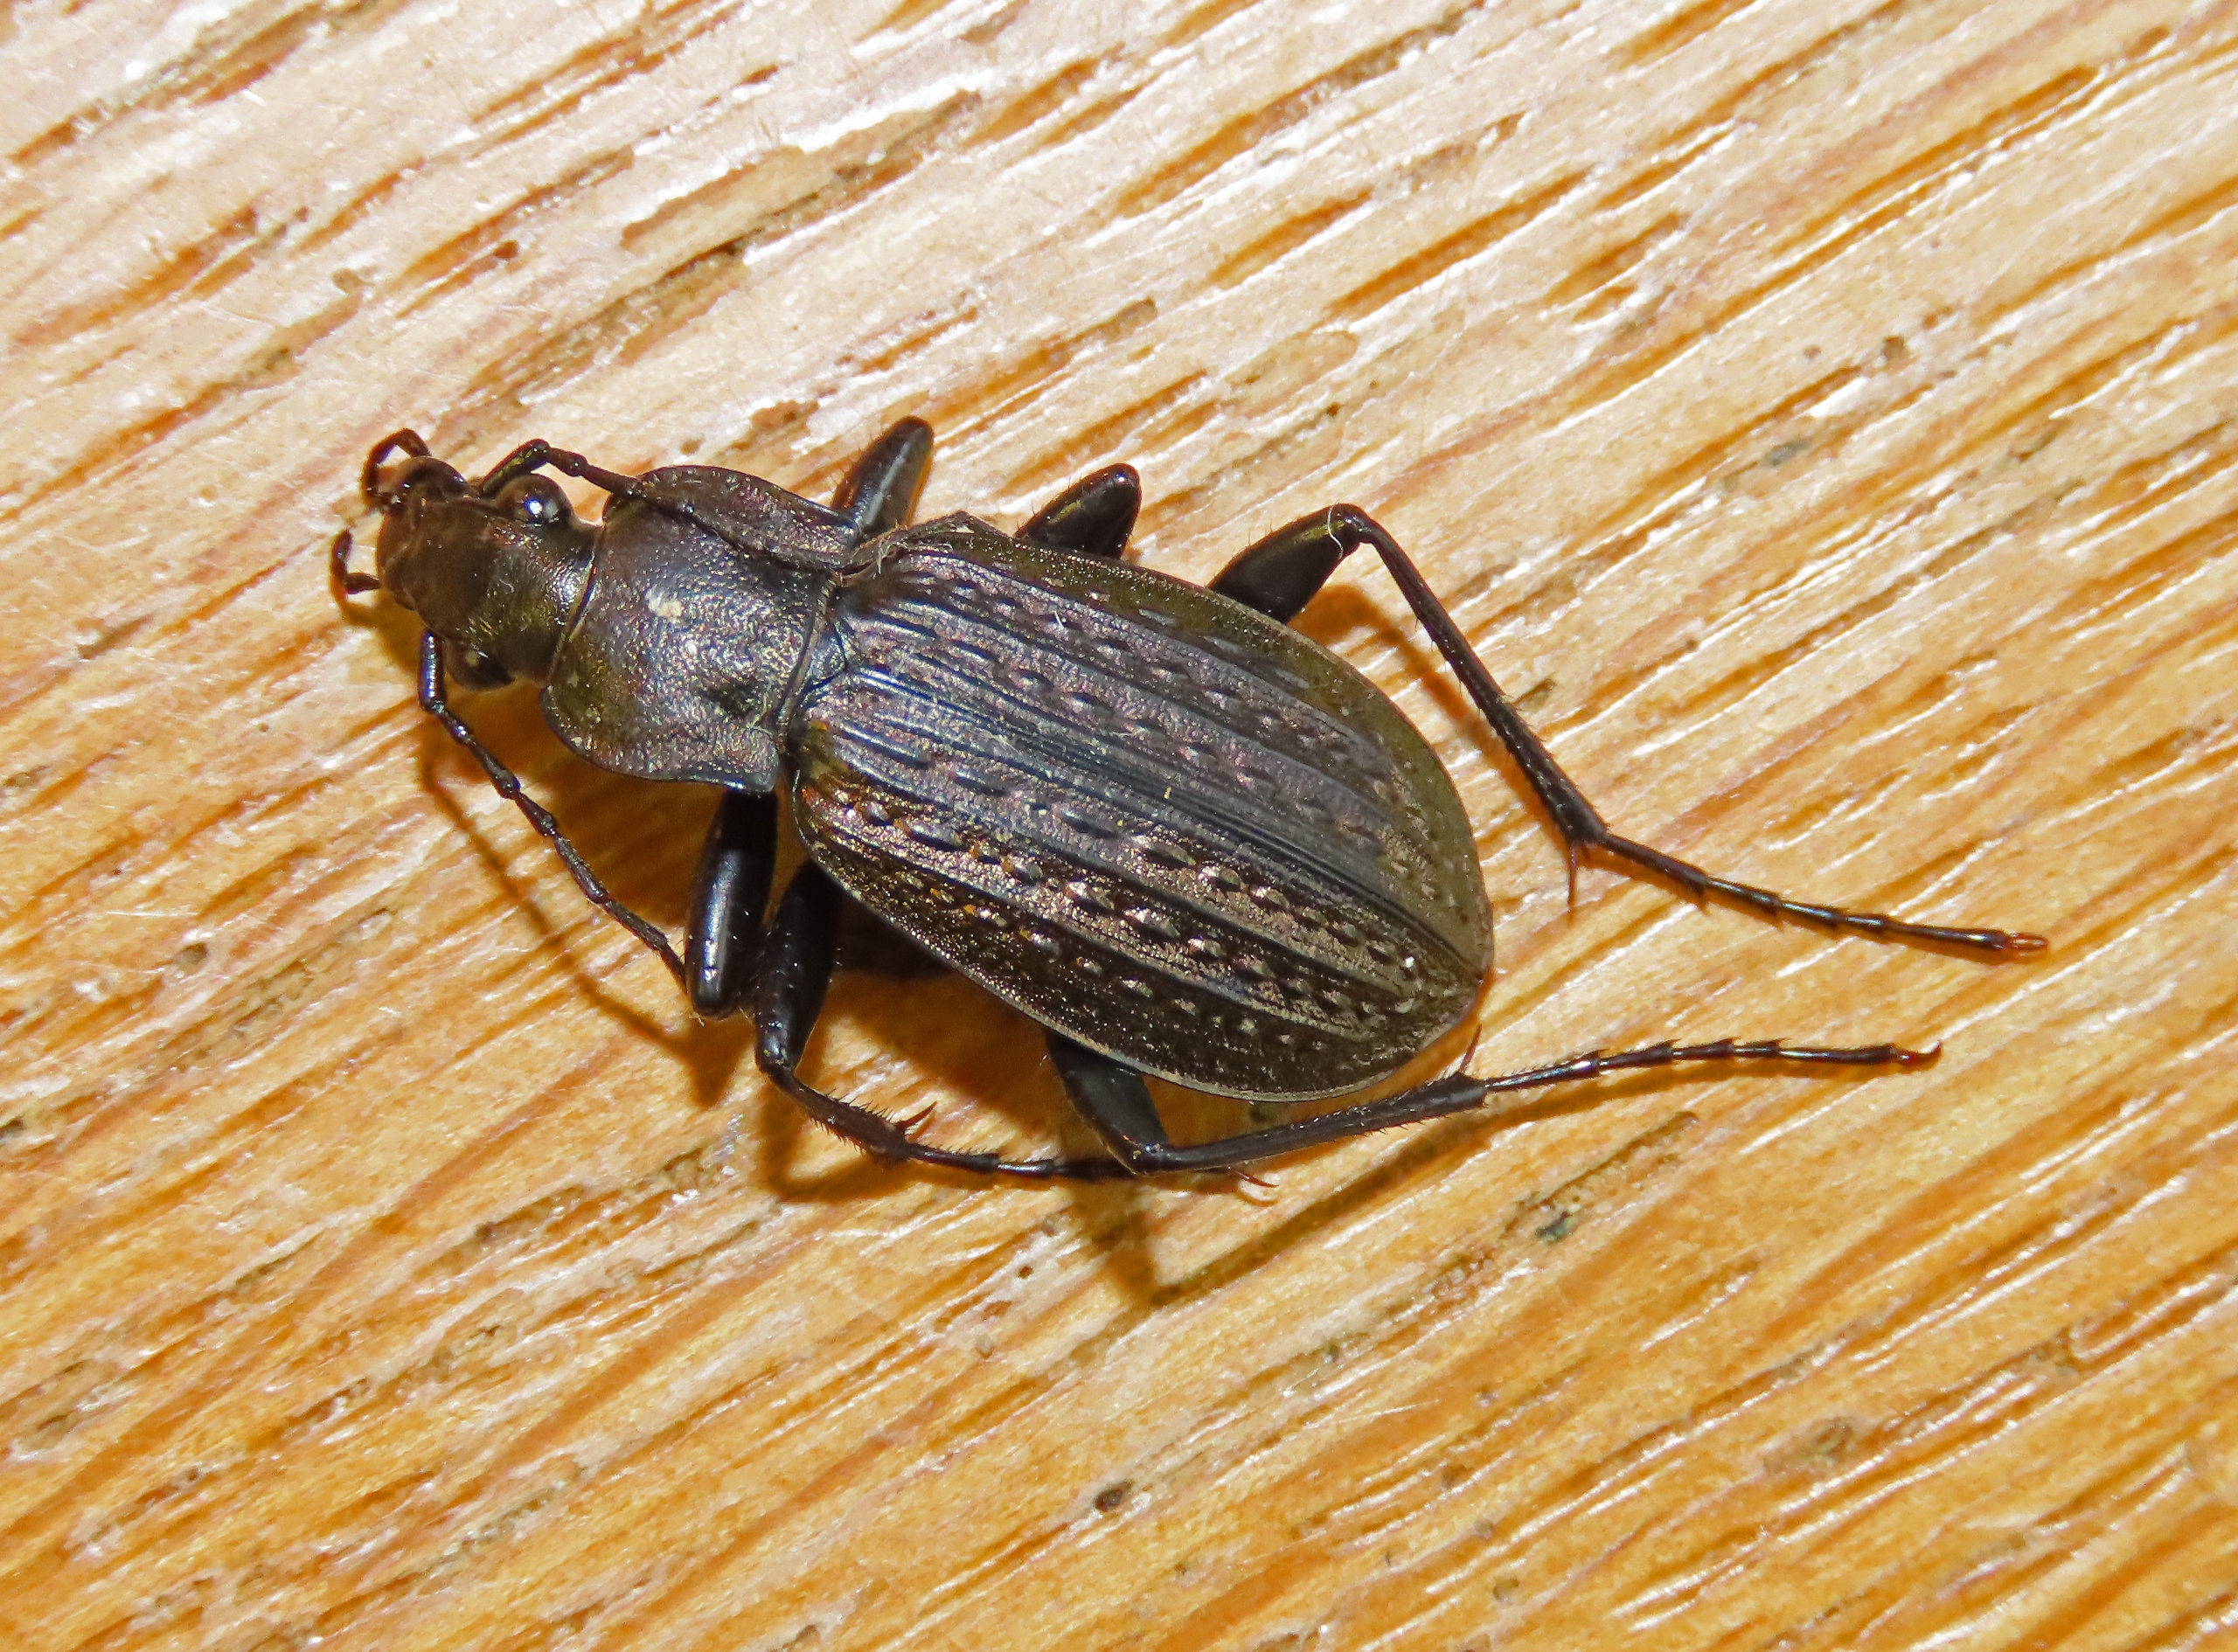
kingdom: Animalia
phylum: Arthropoda
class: Insecta
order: Coleoptera
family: Carabidae
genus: Carabus
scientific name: Carabus granulatus
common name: Kornet løber
